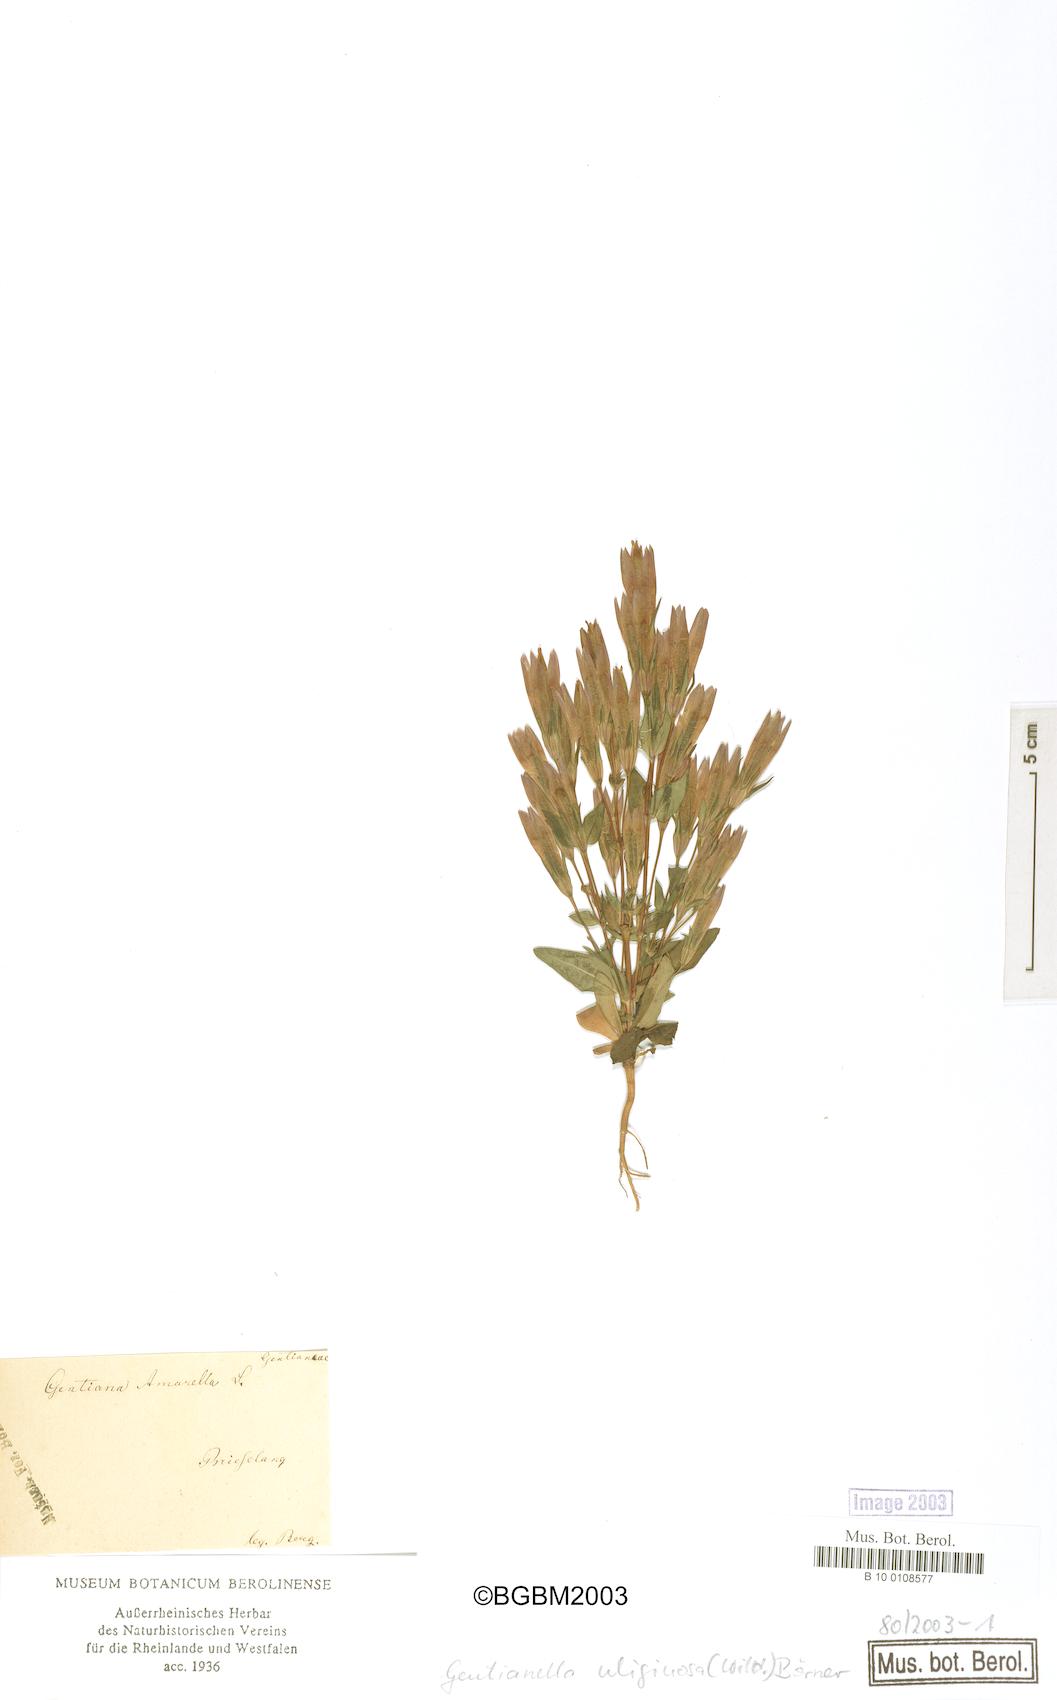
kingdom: Plantae
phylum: Tracheophyta
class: Magnoliopsida
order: Gentianales
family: Gentianaceae
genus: Gentianella
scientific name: Gentianella uliginosa
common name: Dune gentian
